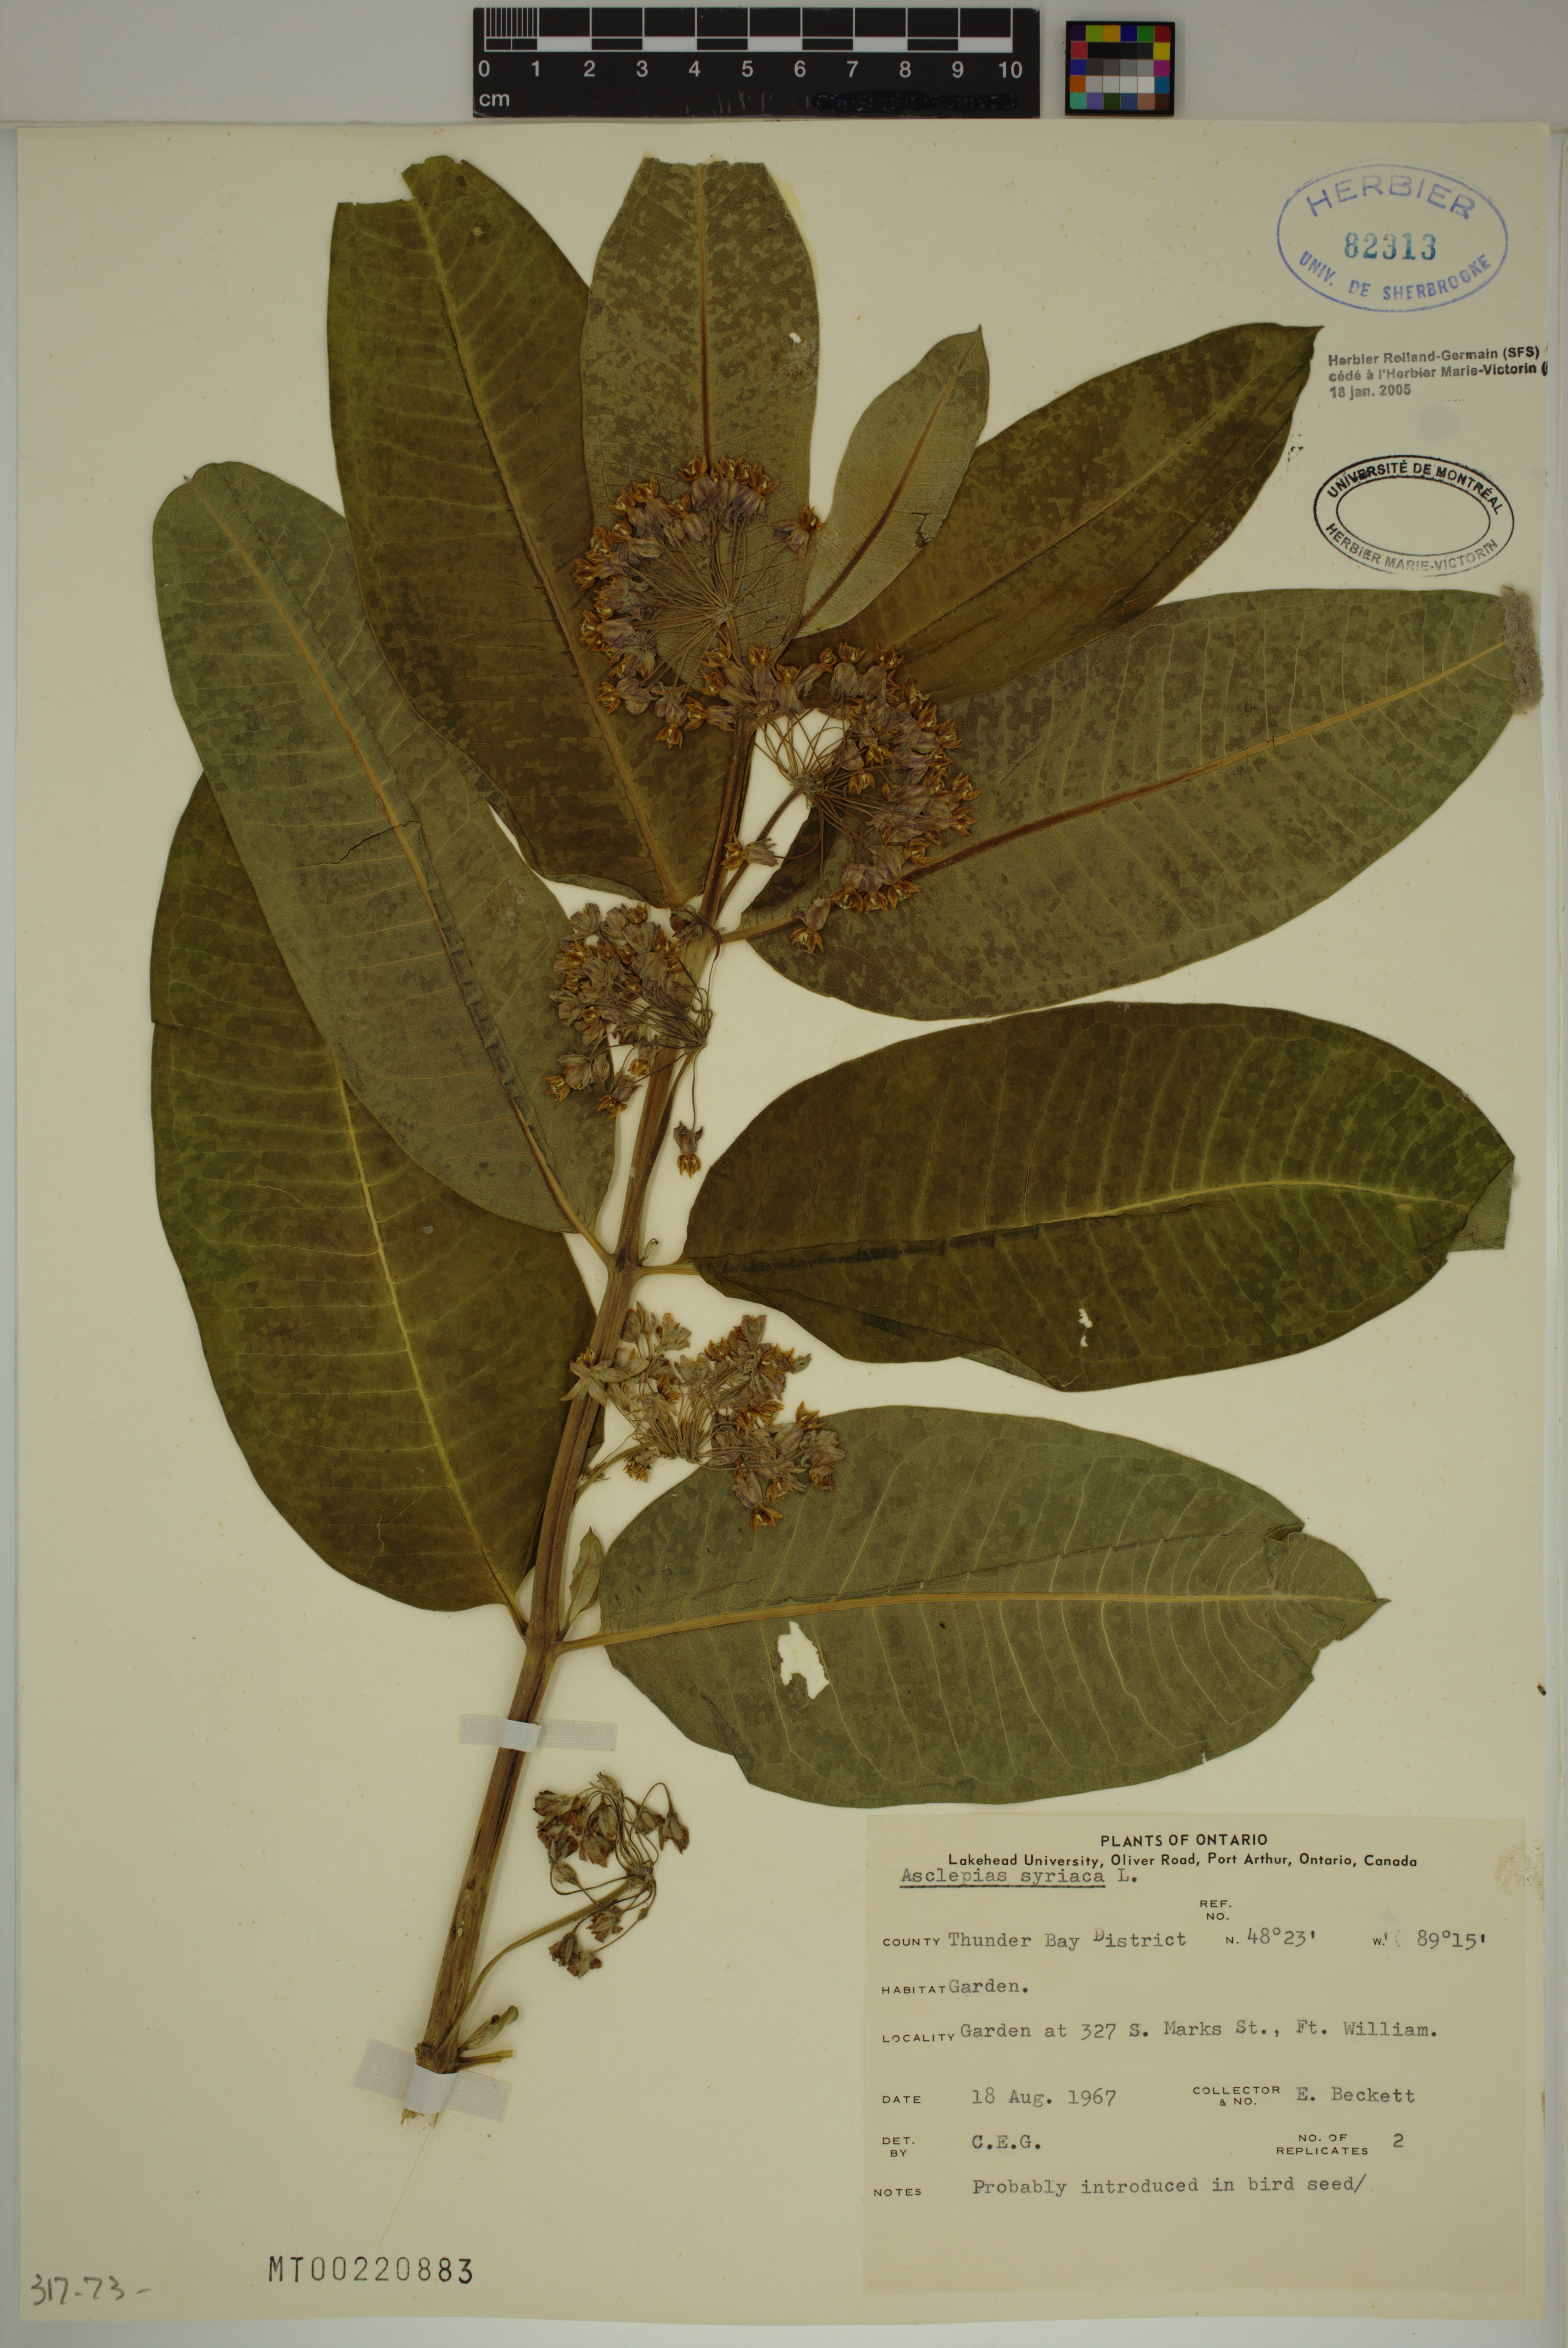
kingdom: Plantae
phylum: Tracheophyta
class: Magnoliopsida
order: Gentianales
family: Apocynaceae
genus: Asclepias
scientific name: Asclepias syriaca
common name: Common milkweed
